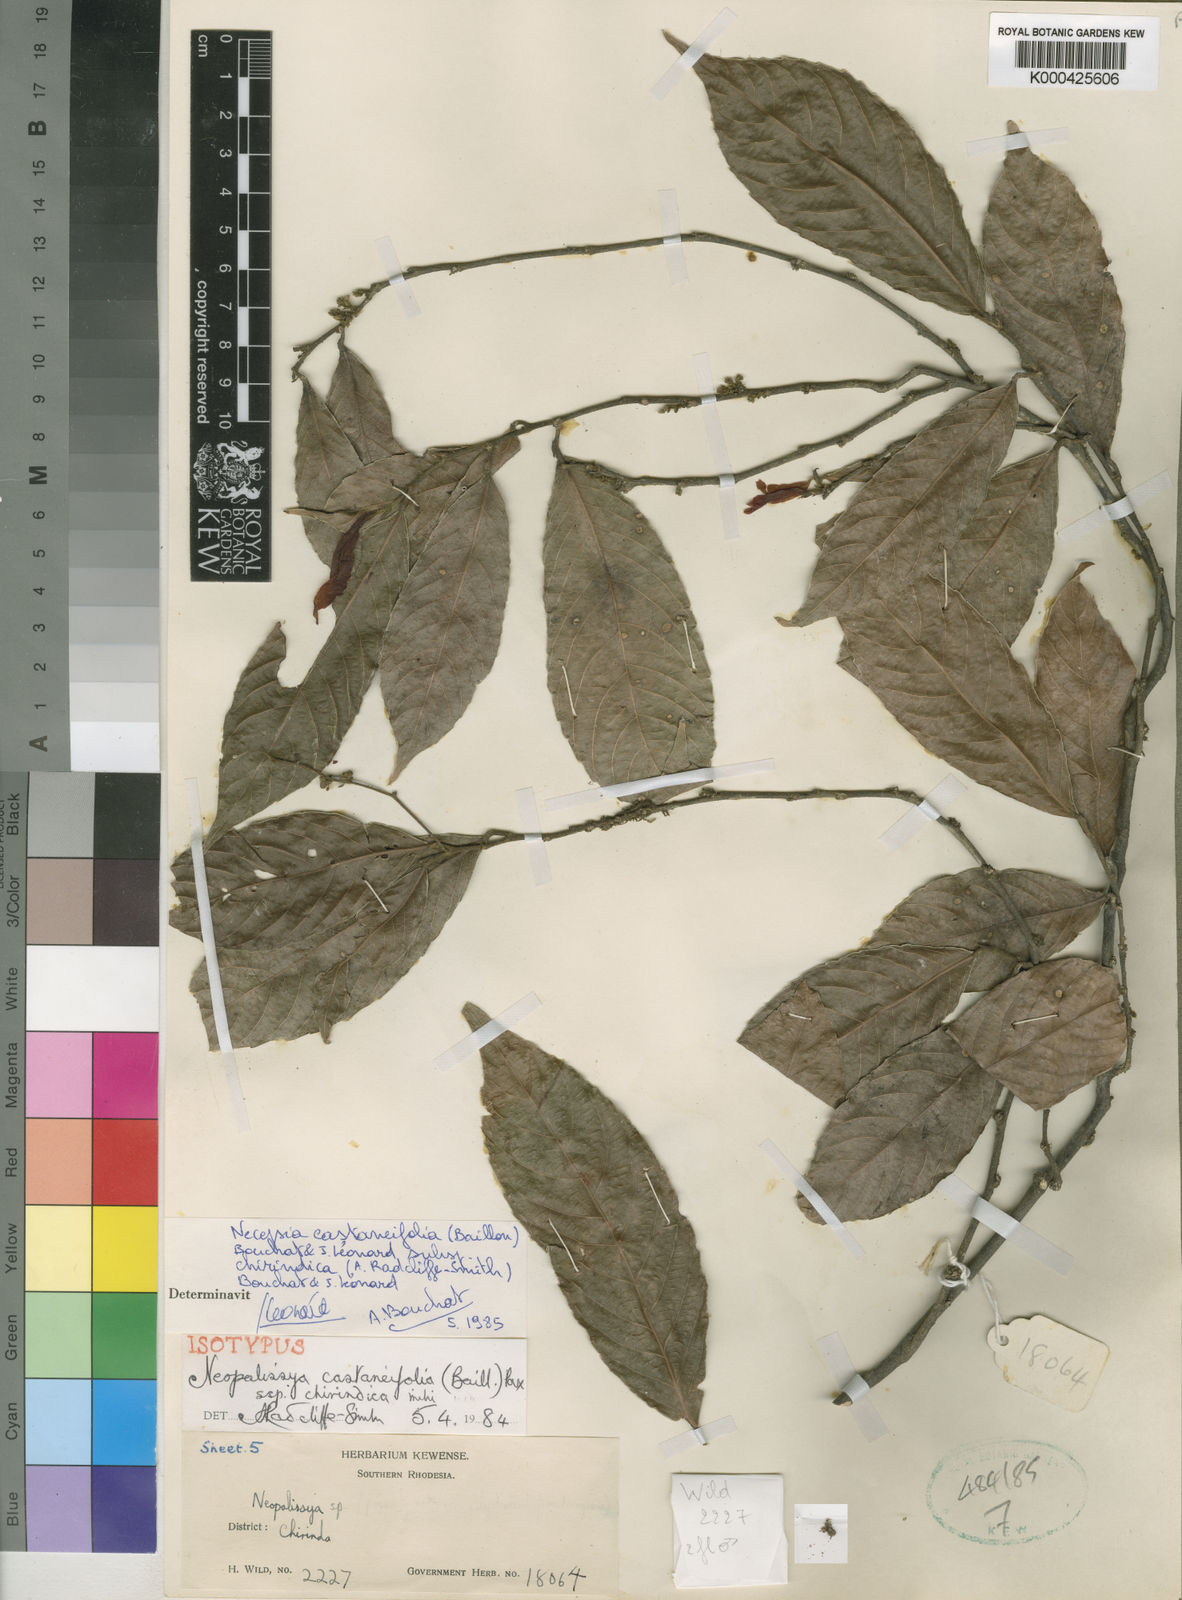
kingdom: Plantae
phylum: Tracheophyta
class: Magnoliopsida
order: Malpighiales
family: Euphorbiaceae
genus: Necepsia
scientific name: Necepsia
